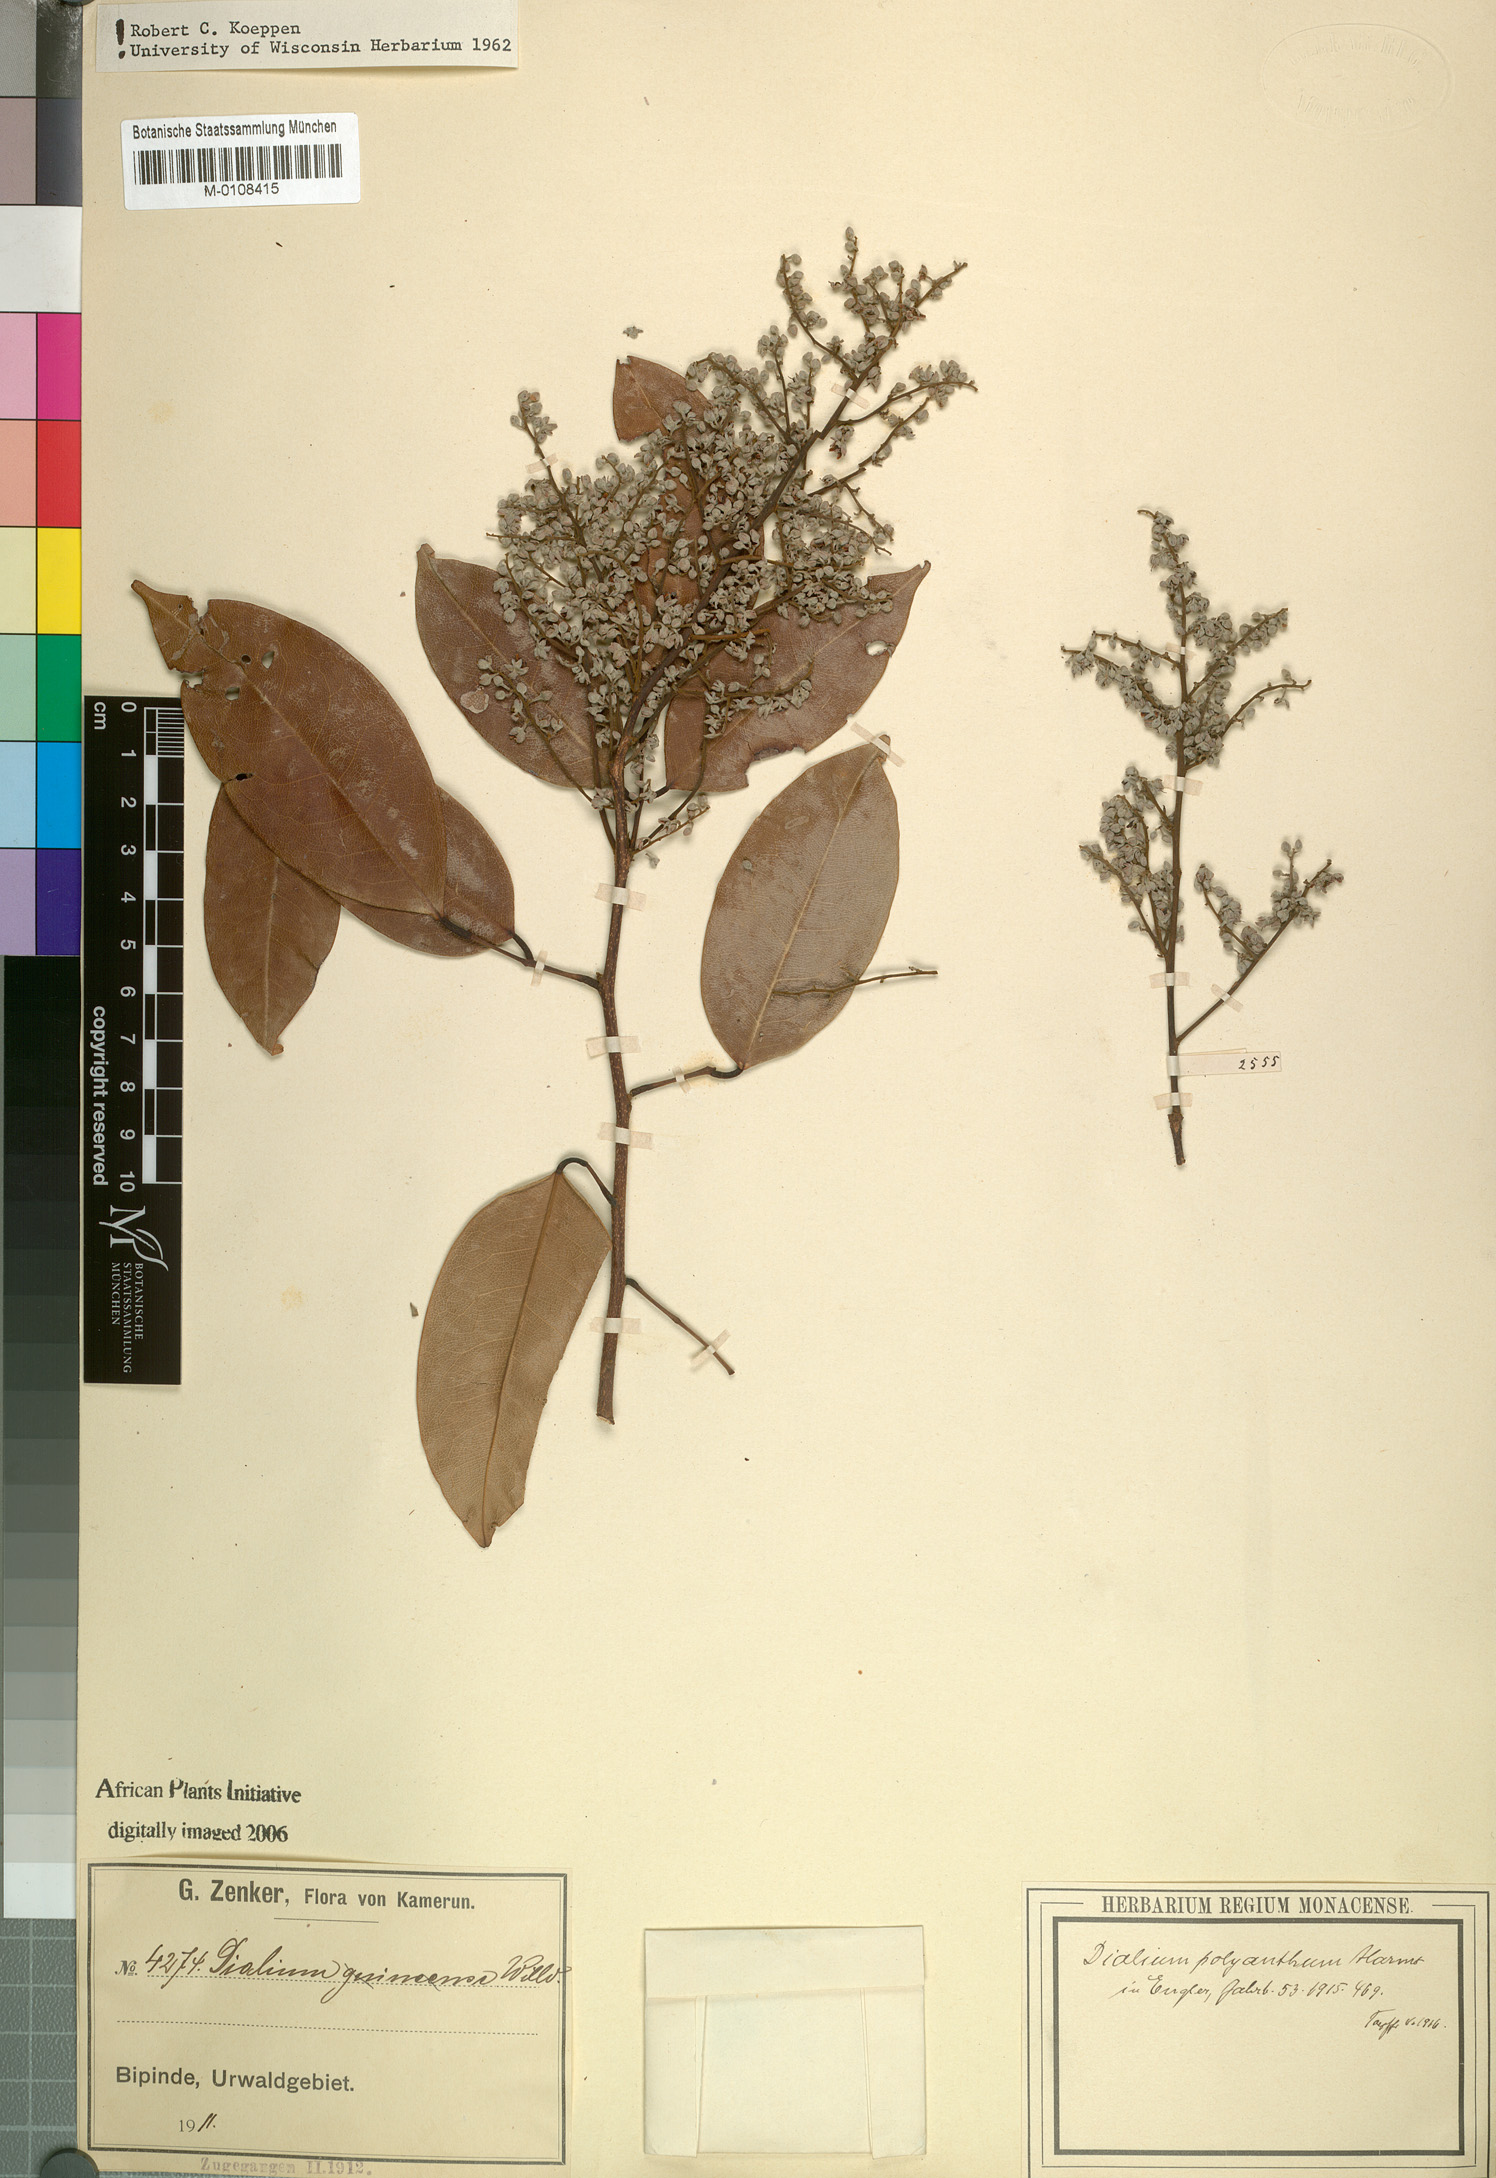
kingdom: Plantae
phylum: Tracheophyta
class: Magnoliopsida
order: Fabales
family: Fabaceae
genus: Dialium
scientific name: Dialium polyanthum
